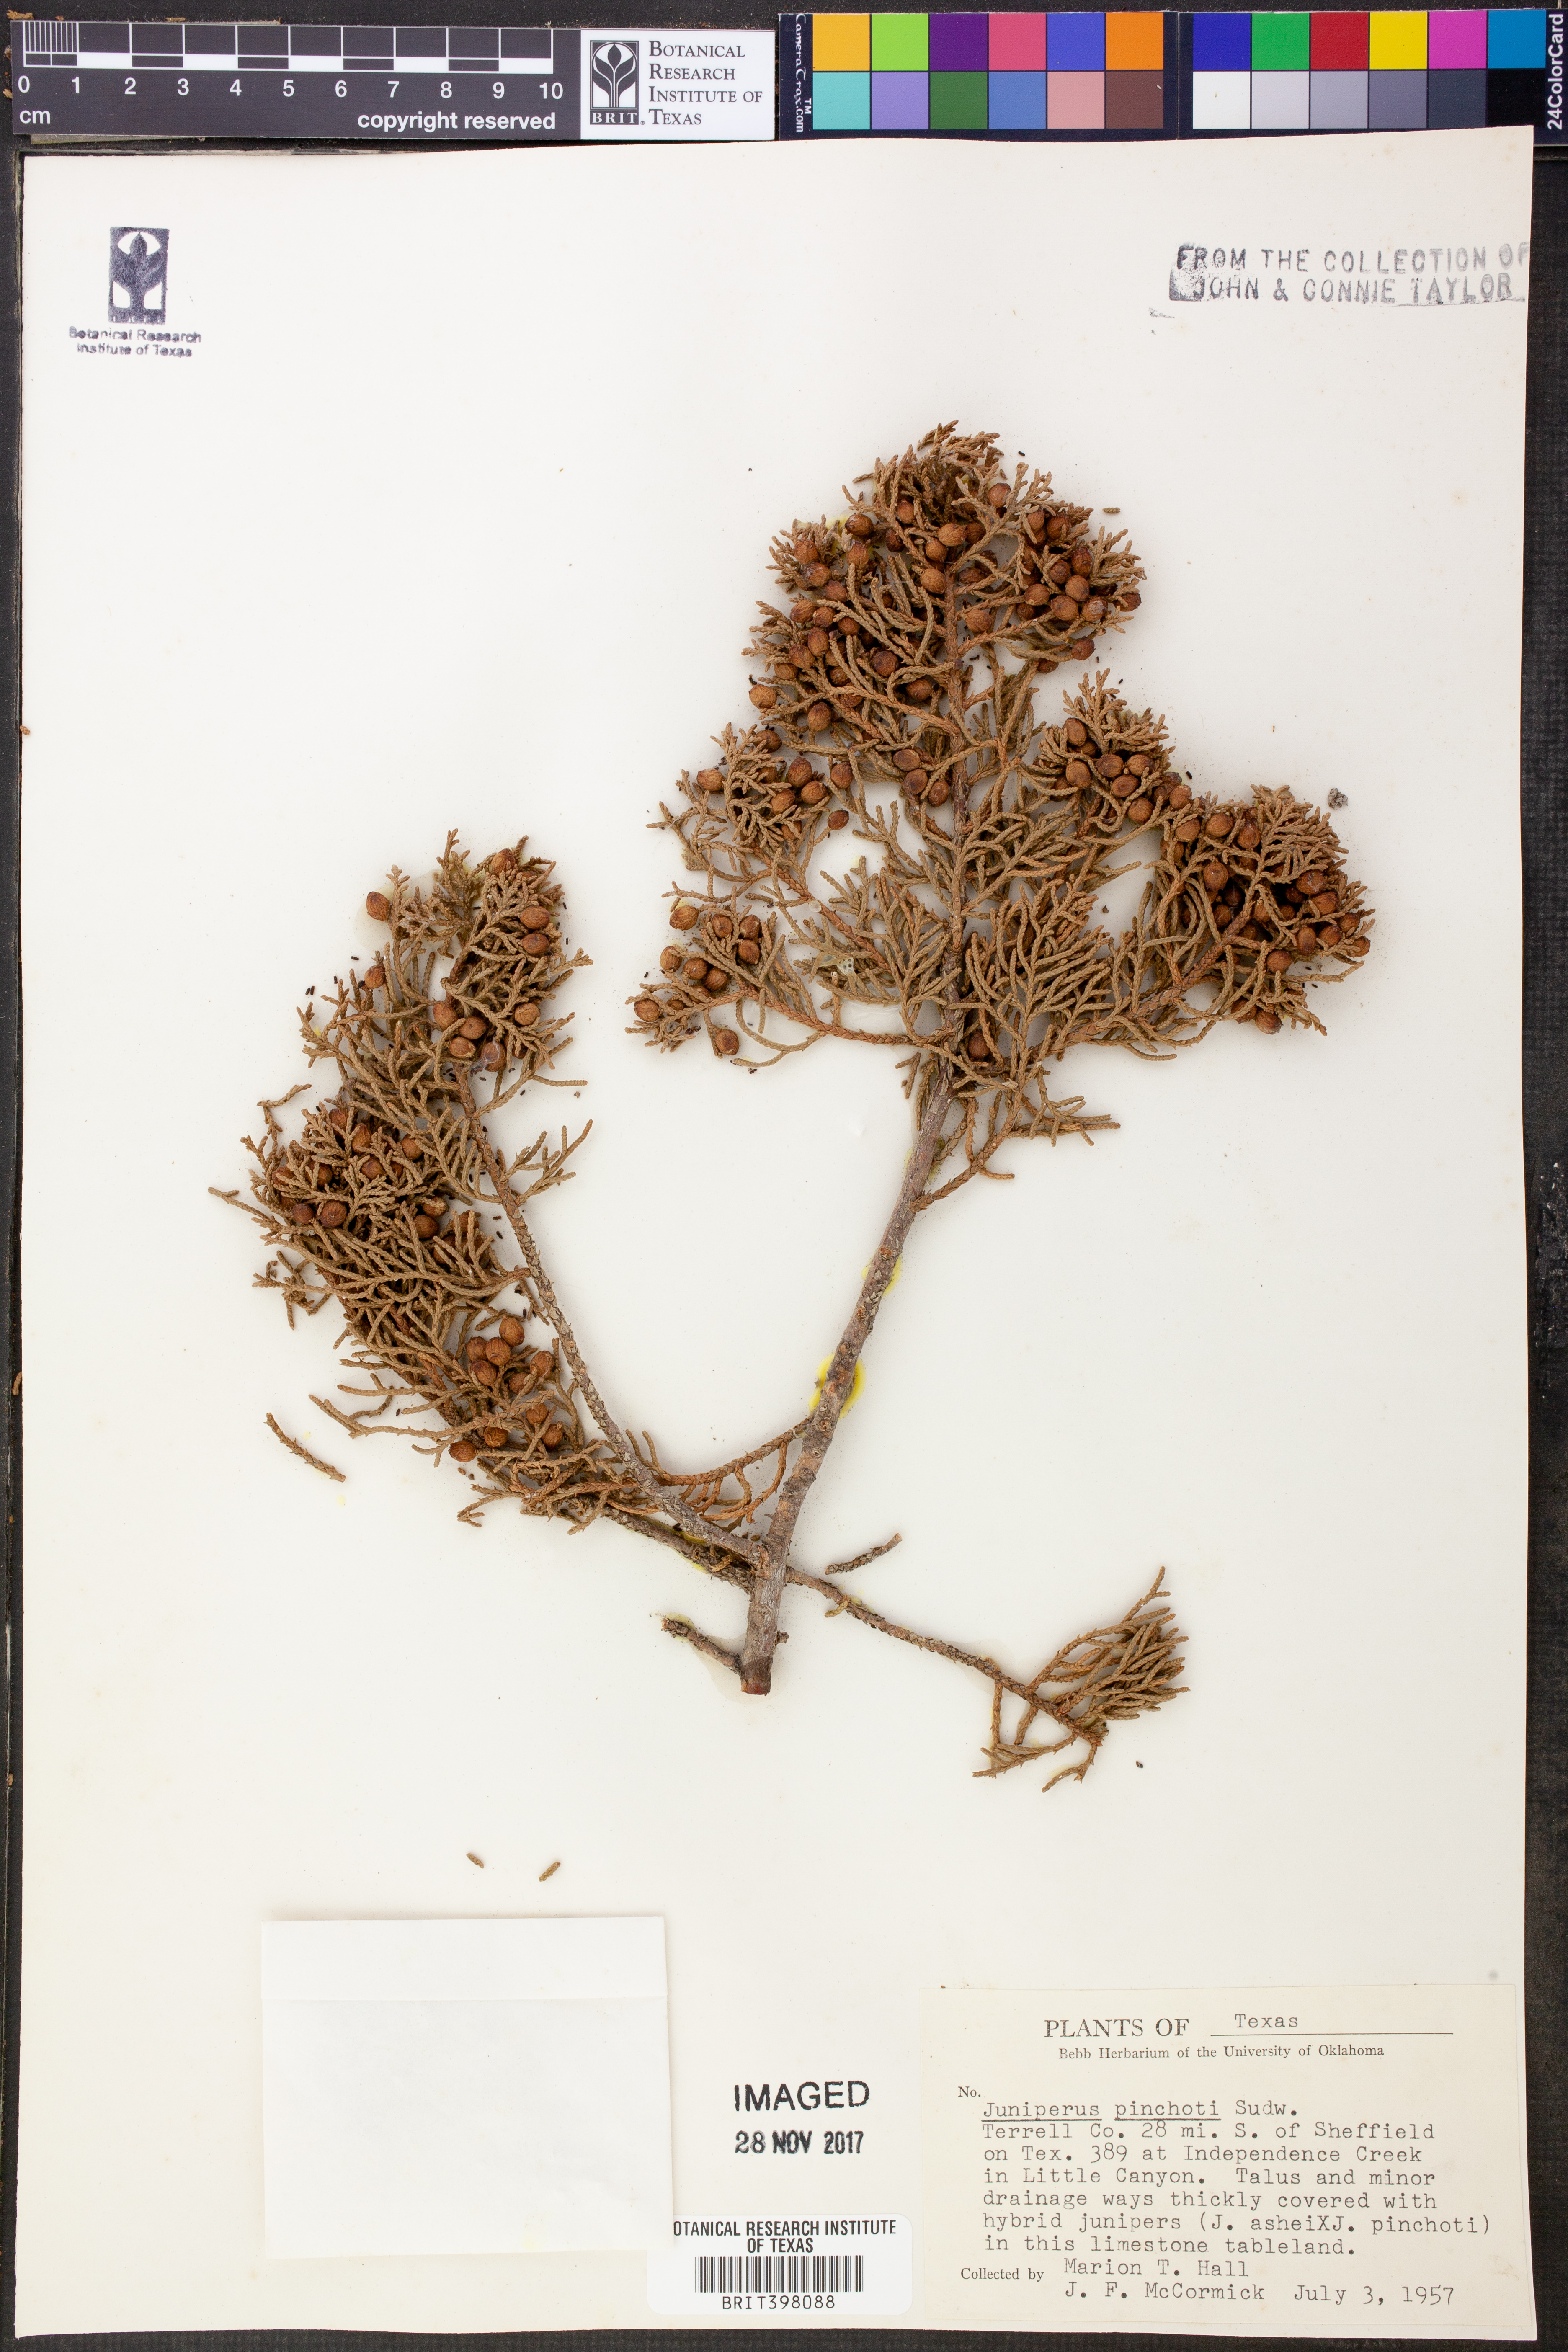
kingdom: Plantae
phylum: Tracheophyta
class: Pinopsida
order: Pinales
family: Cupressaceae
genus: Juniperus
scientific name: Juniperus pinchotii
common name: Pinchot juniper
